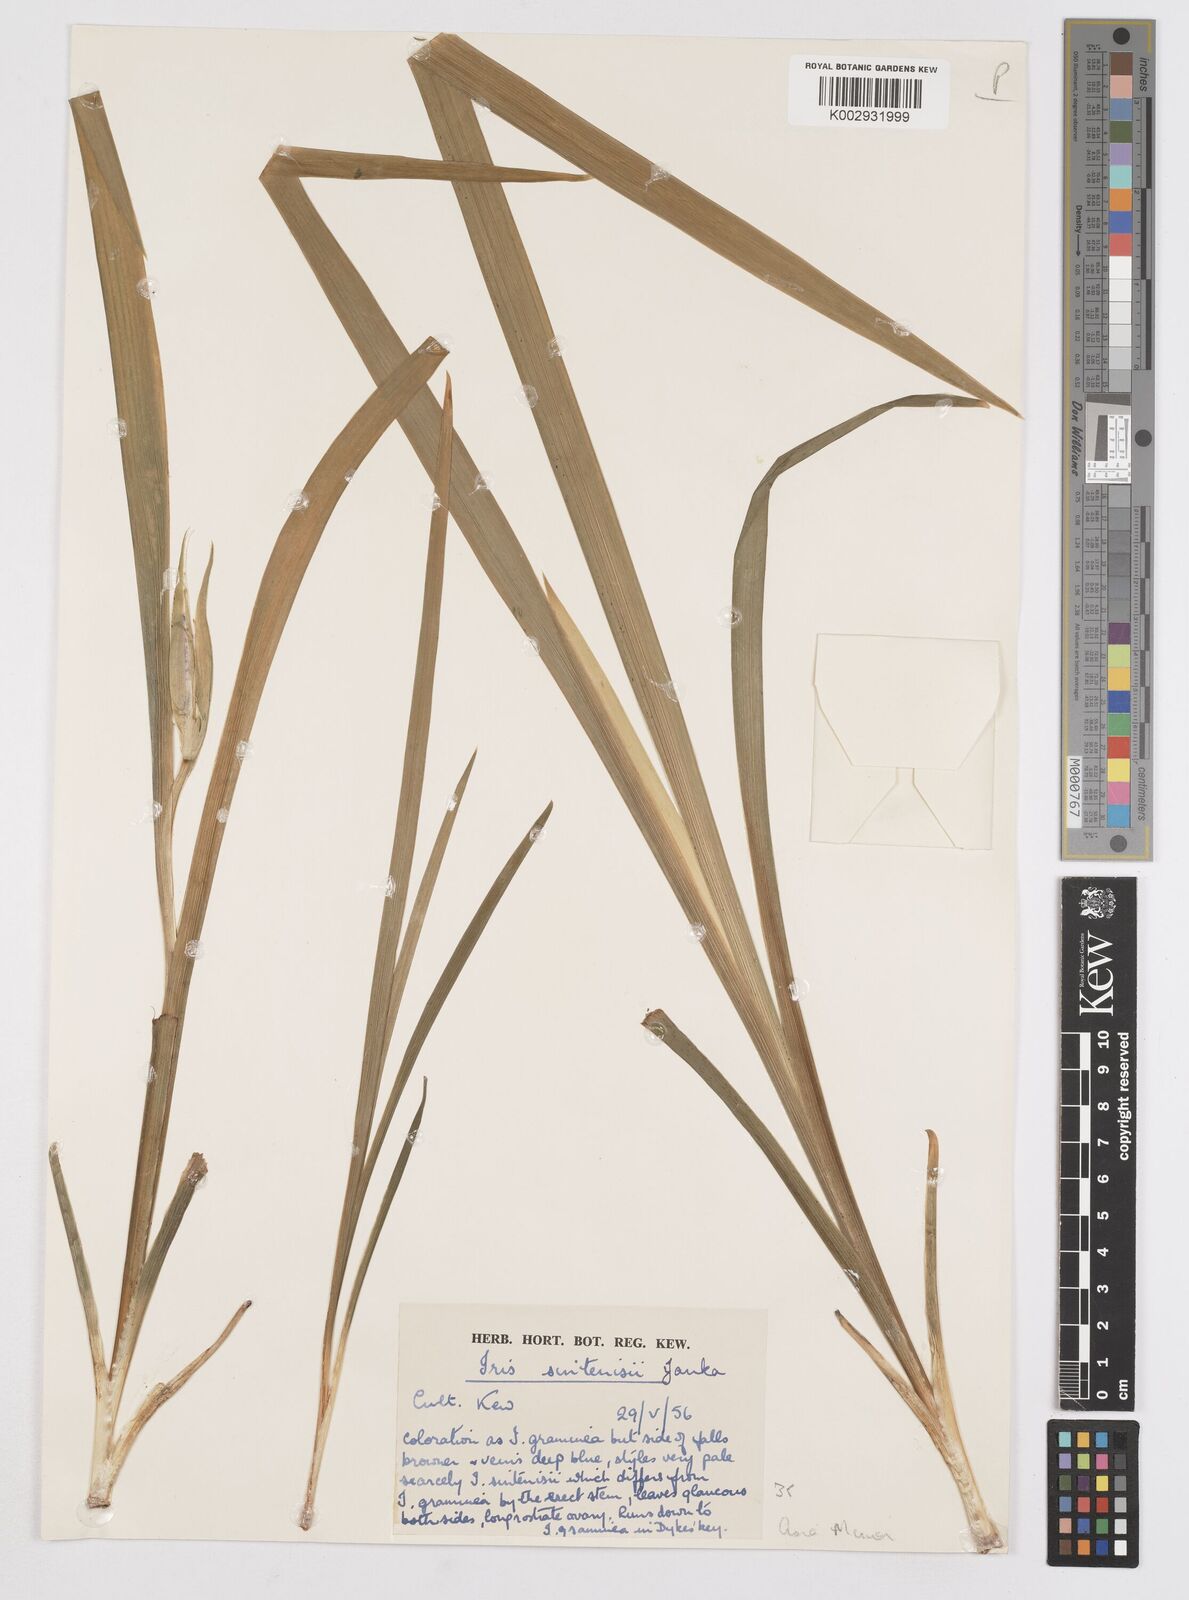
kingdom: Plantae
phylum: Tracheophyta
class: Liliopsida
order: Asparagales
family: Iridaceae
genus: Iris
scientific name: Iris graminea
